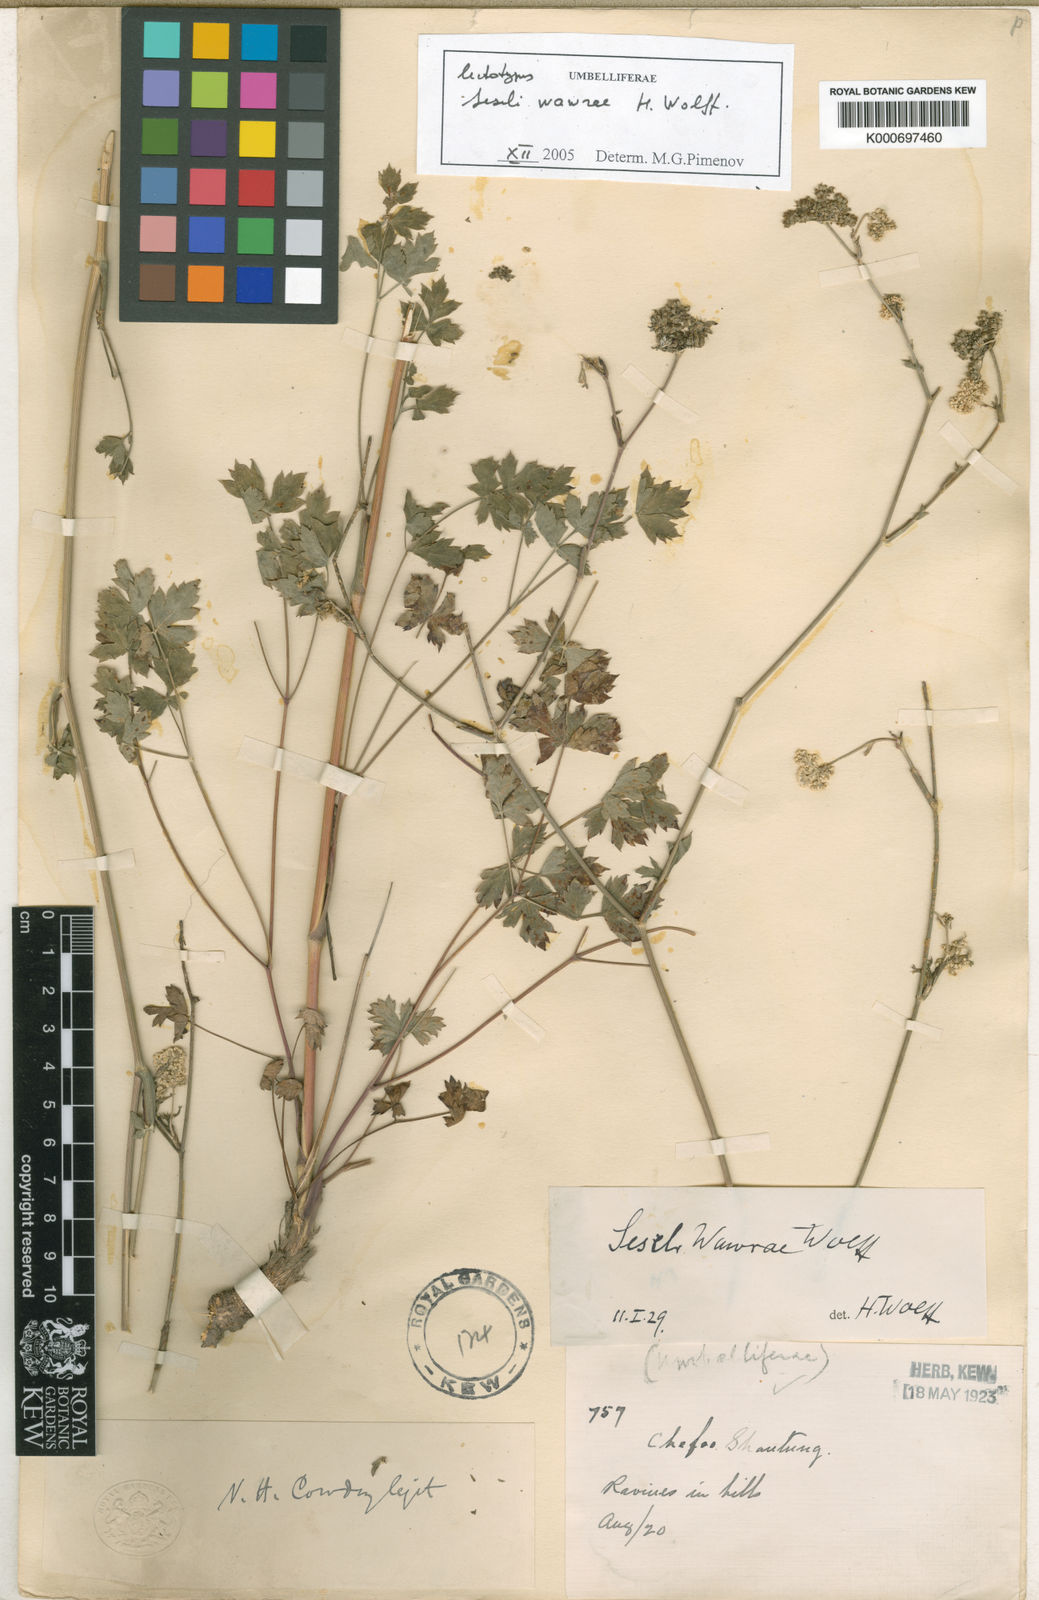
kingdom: Plantae
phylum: Tracheophyta
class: Magnoliopsida
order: Apiales
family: Apiaceae
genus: Seseli
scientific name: Seseli wawrae
